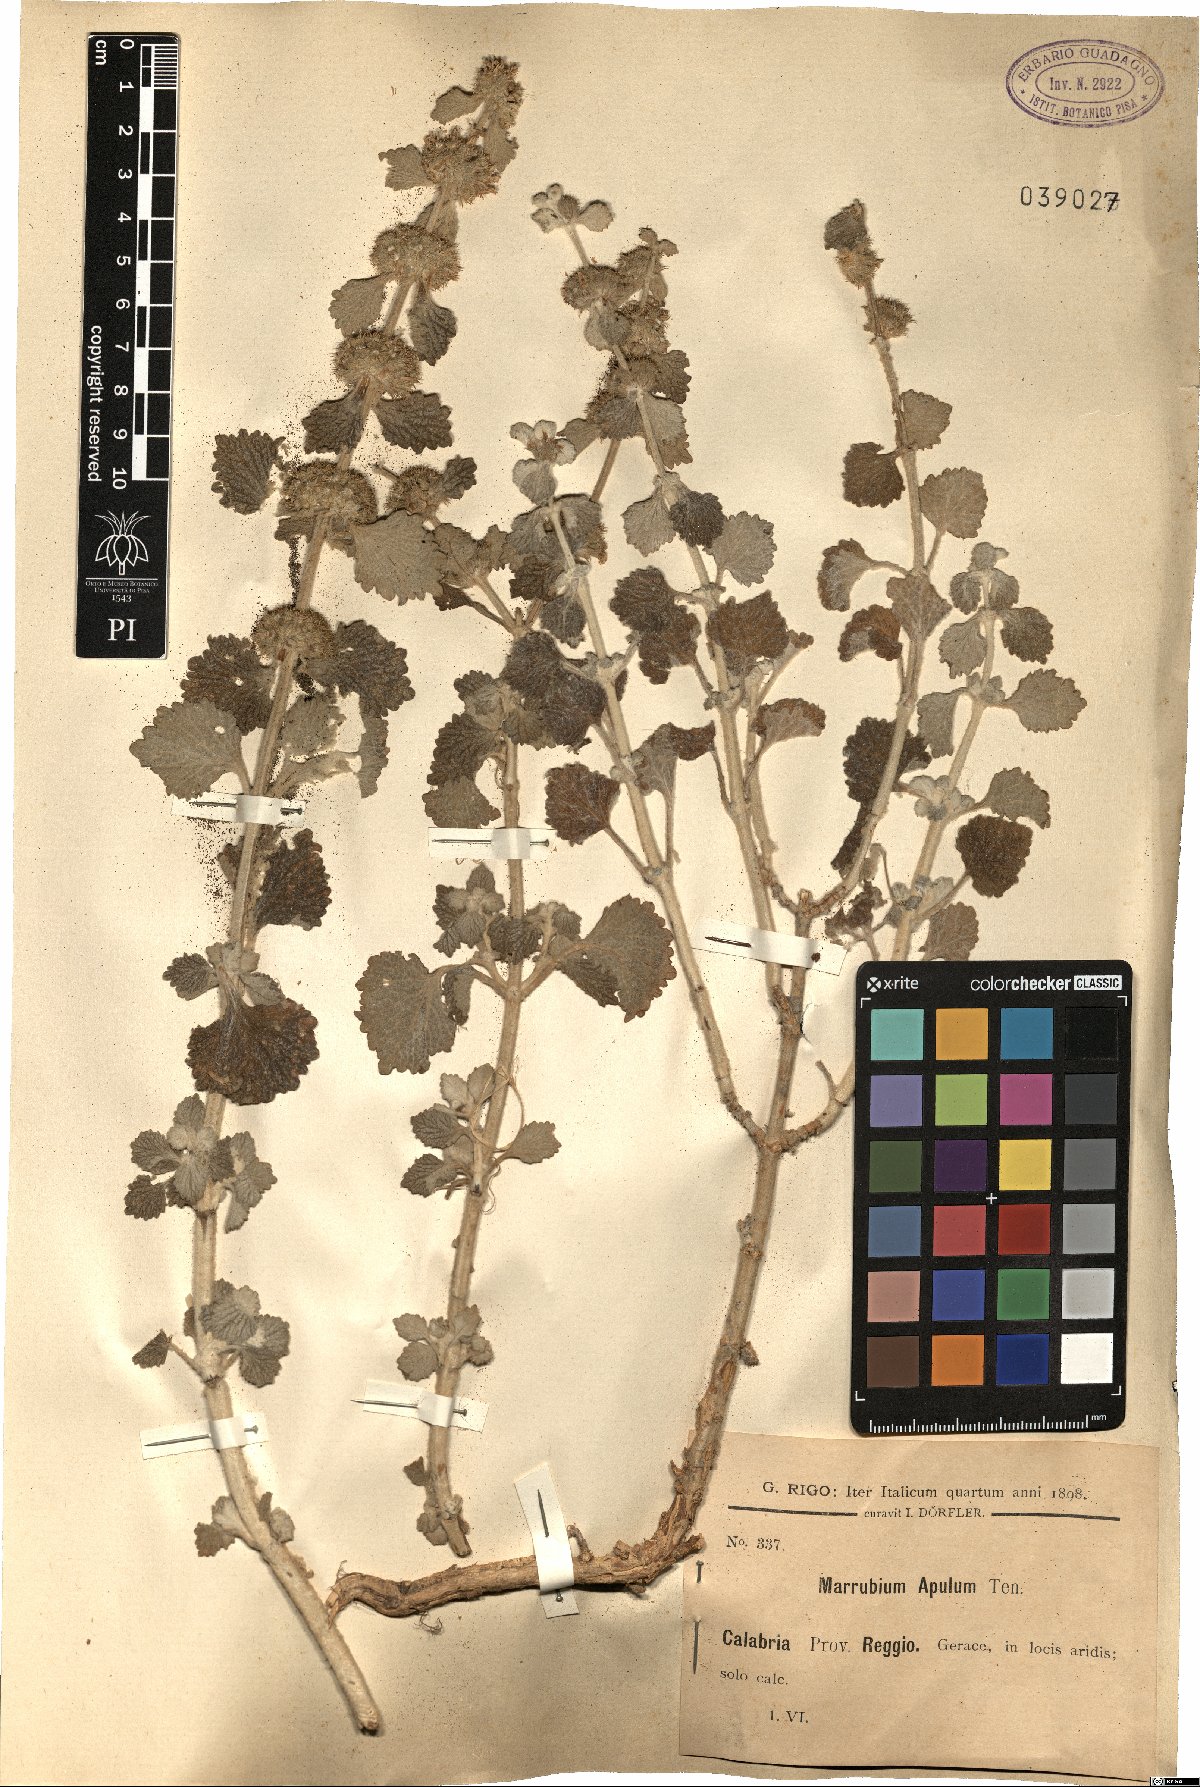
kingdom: Plantae
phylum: Tracheophyta
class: Magnoliopsida
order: Lamiales
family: Lamiaceae
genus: Marrubium
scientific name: Marrubium vulgare
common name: Horehound
